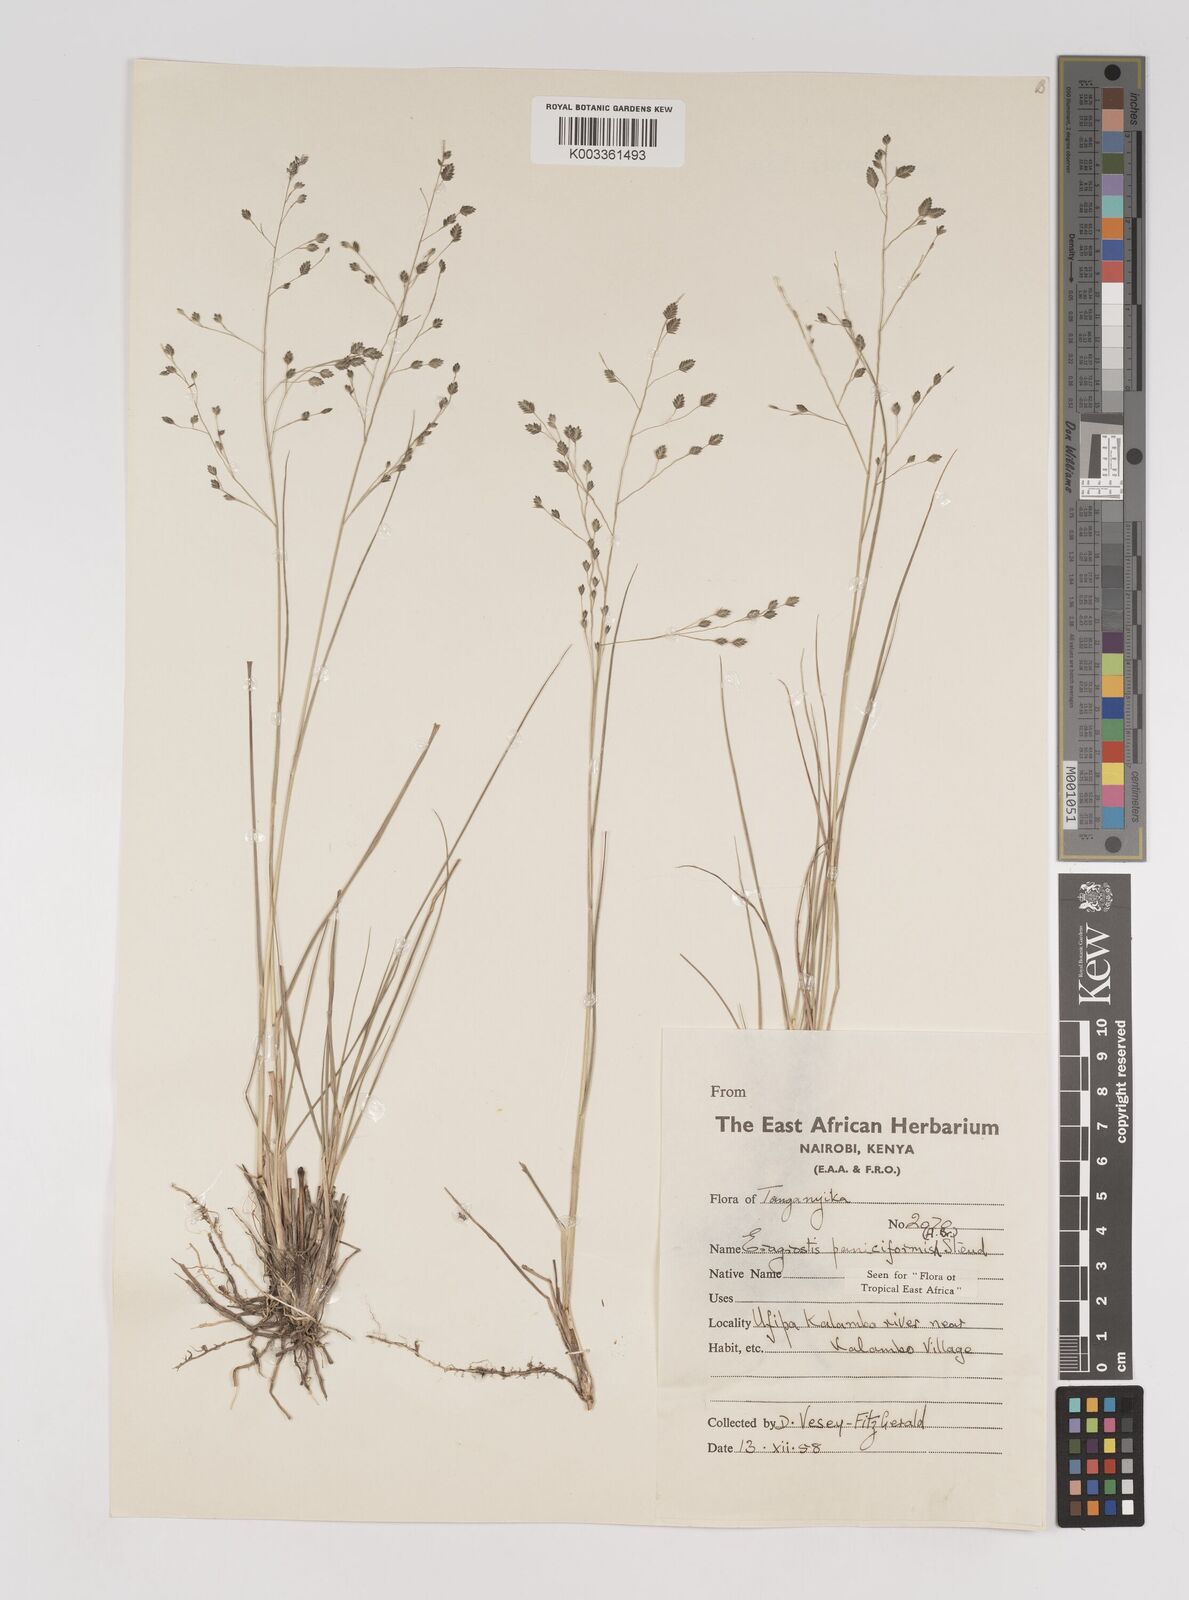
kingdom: Plantae
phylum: Tracheophyta
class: Liliopsida
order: Poales
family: Poaceae
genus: Eragrostis
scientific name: Eragrostis paniciformis
